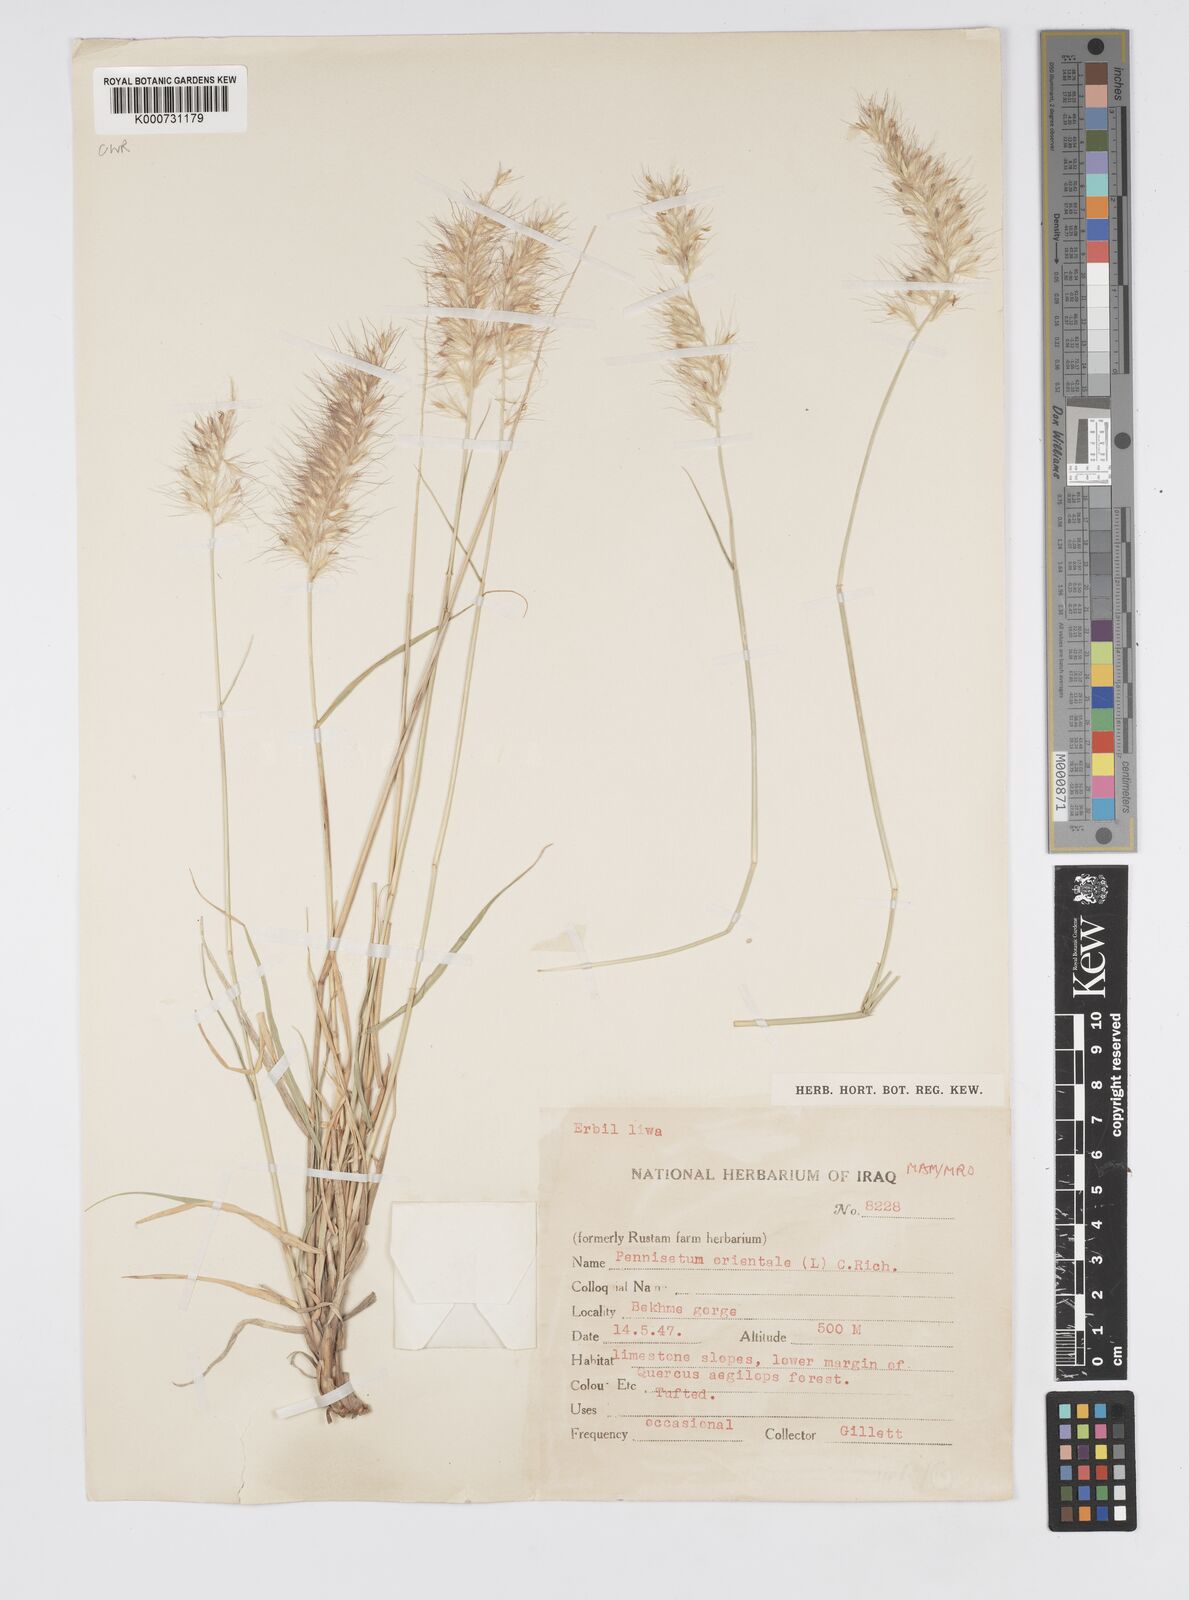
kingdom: Plantae
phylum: Tracheophyta
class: Liliopsida
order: Poales
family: Poaceae
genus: Cenchrus
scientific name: Cenchrus orientalis
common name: Oriental fountain grass
